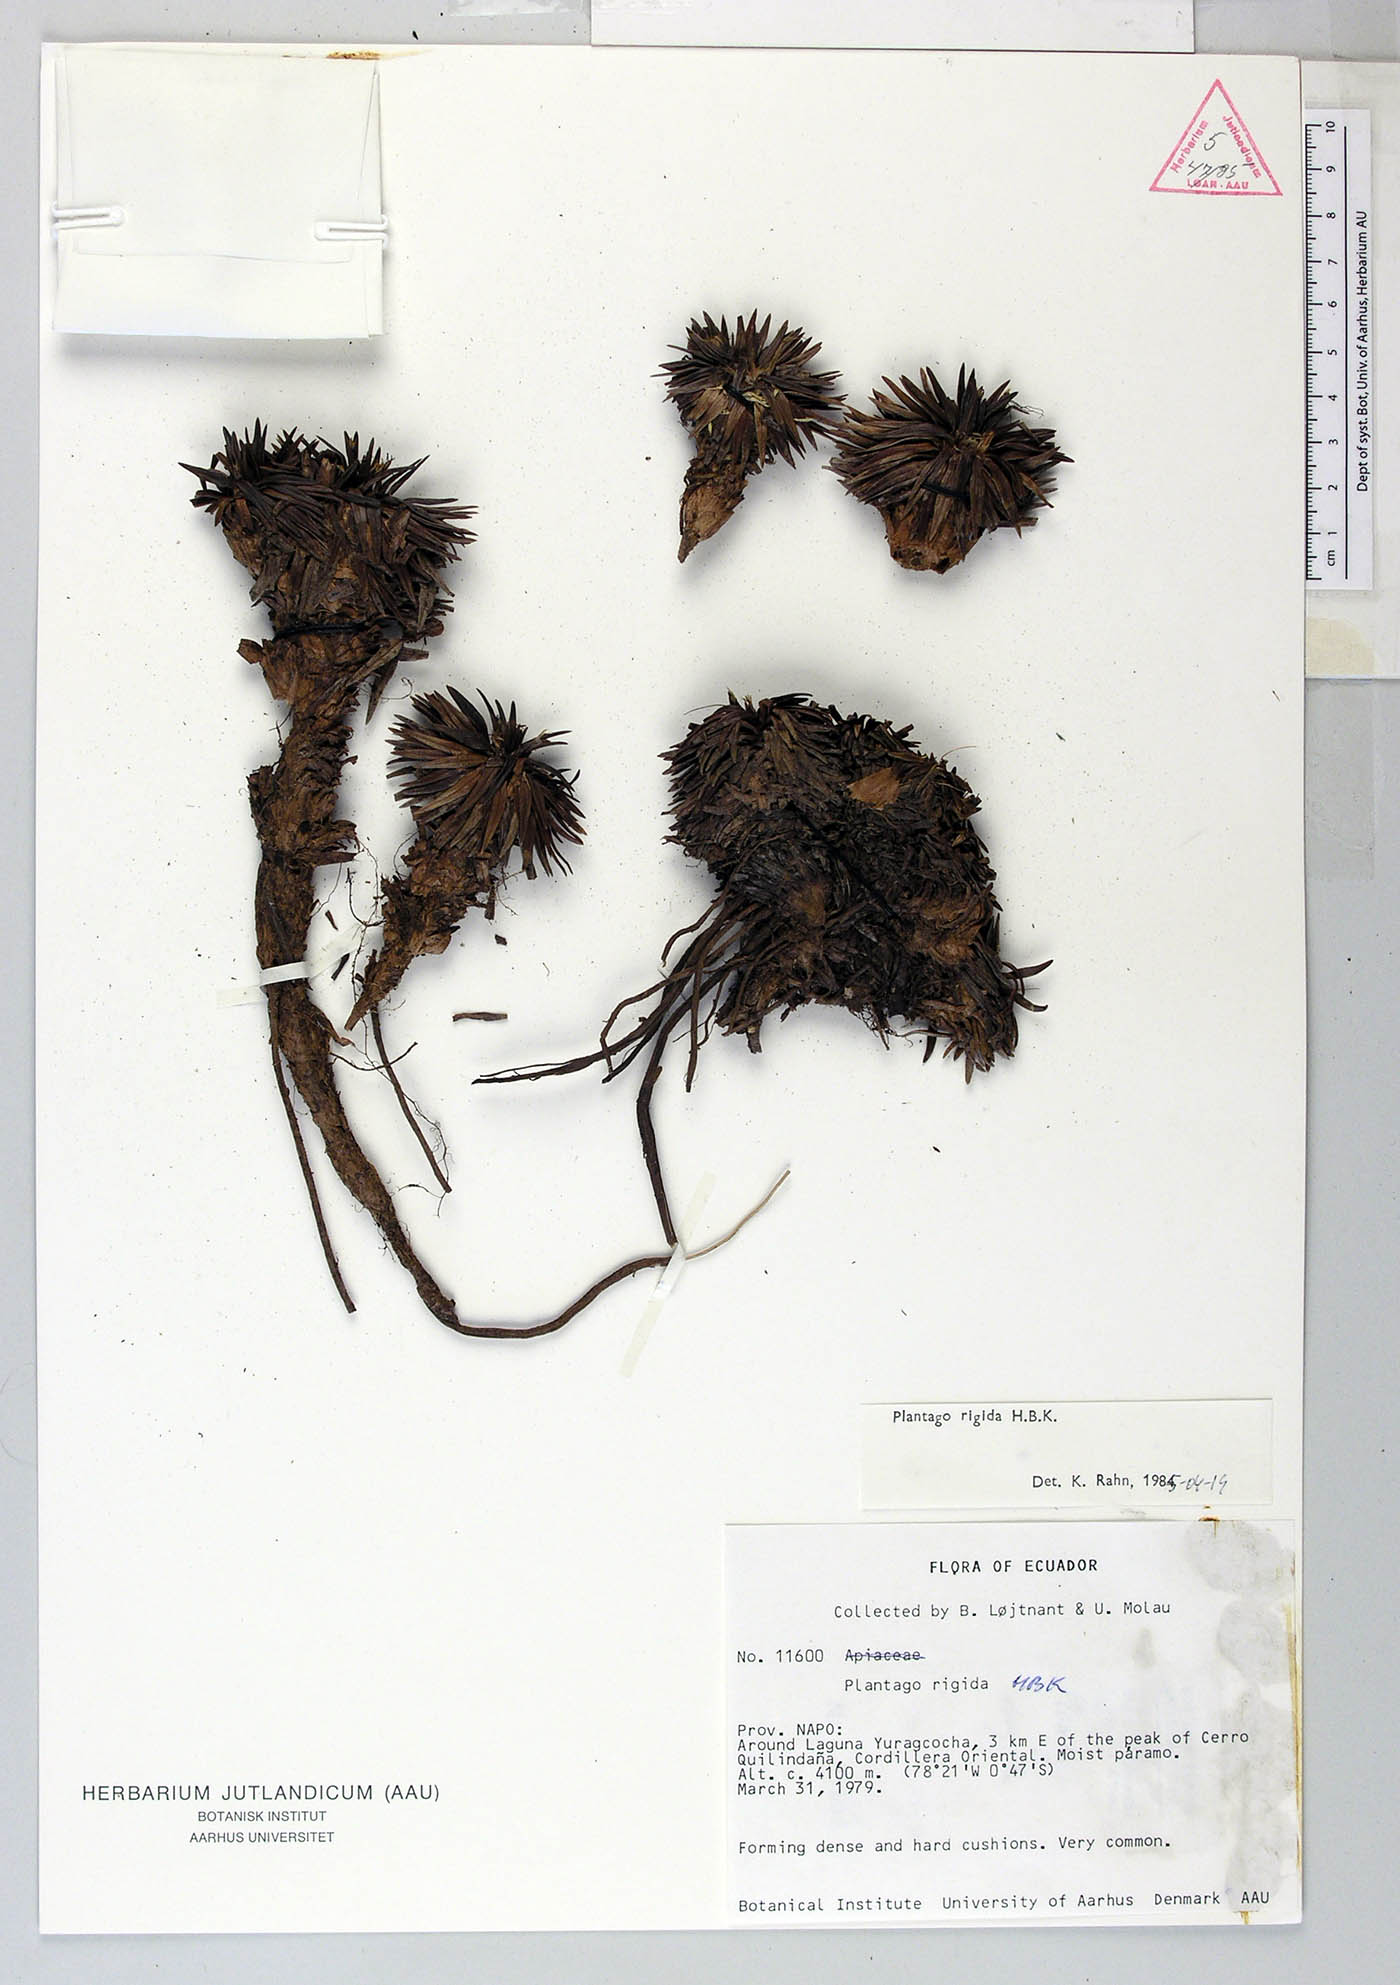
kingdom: Plantae
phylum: Tracheophyta
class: Magnoliopsida
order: Lamiales
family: Plantaginaceae
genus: Plantago
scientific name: Plantago rigida
